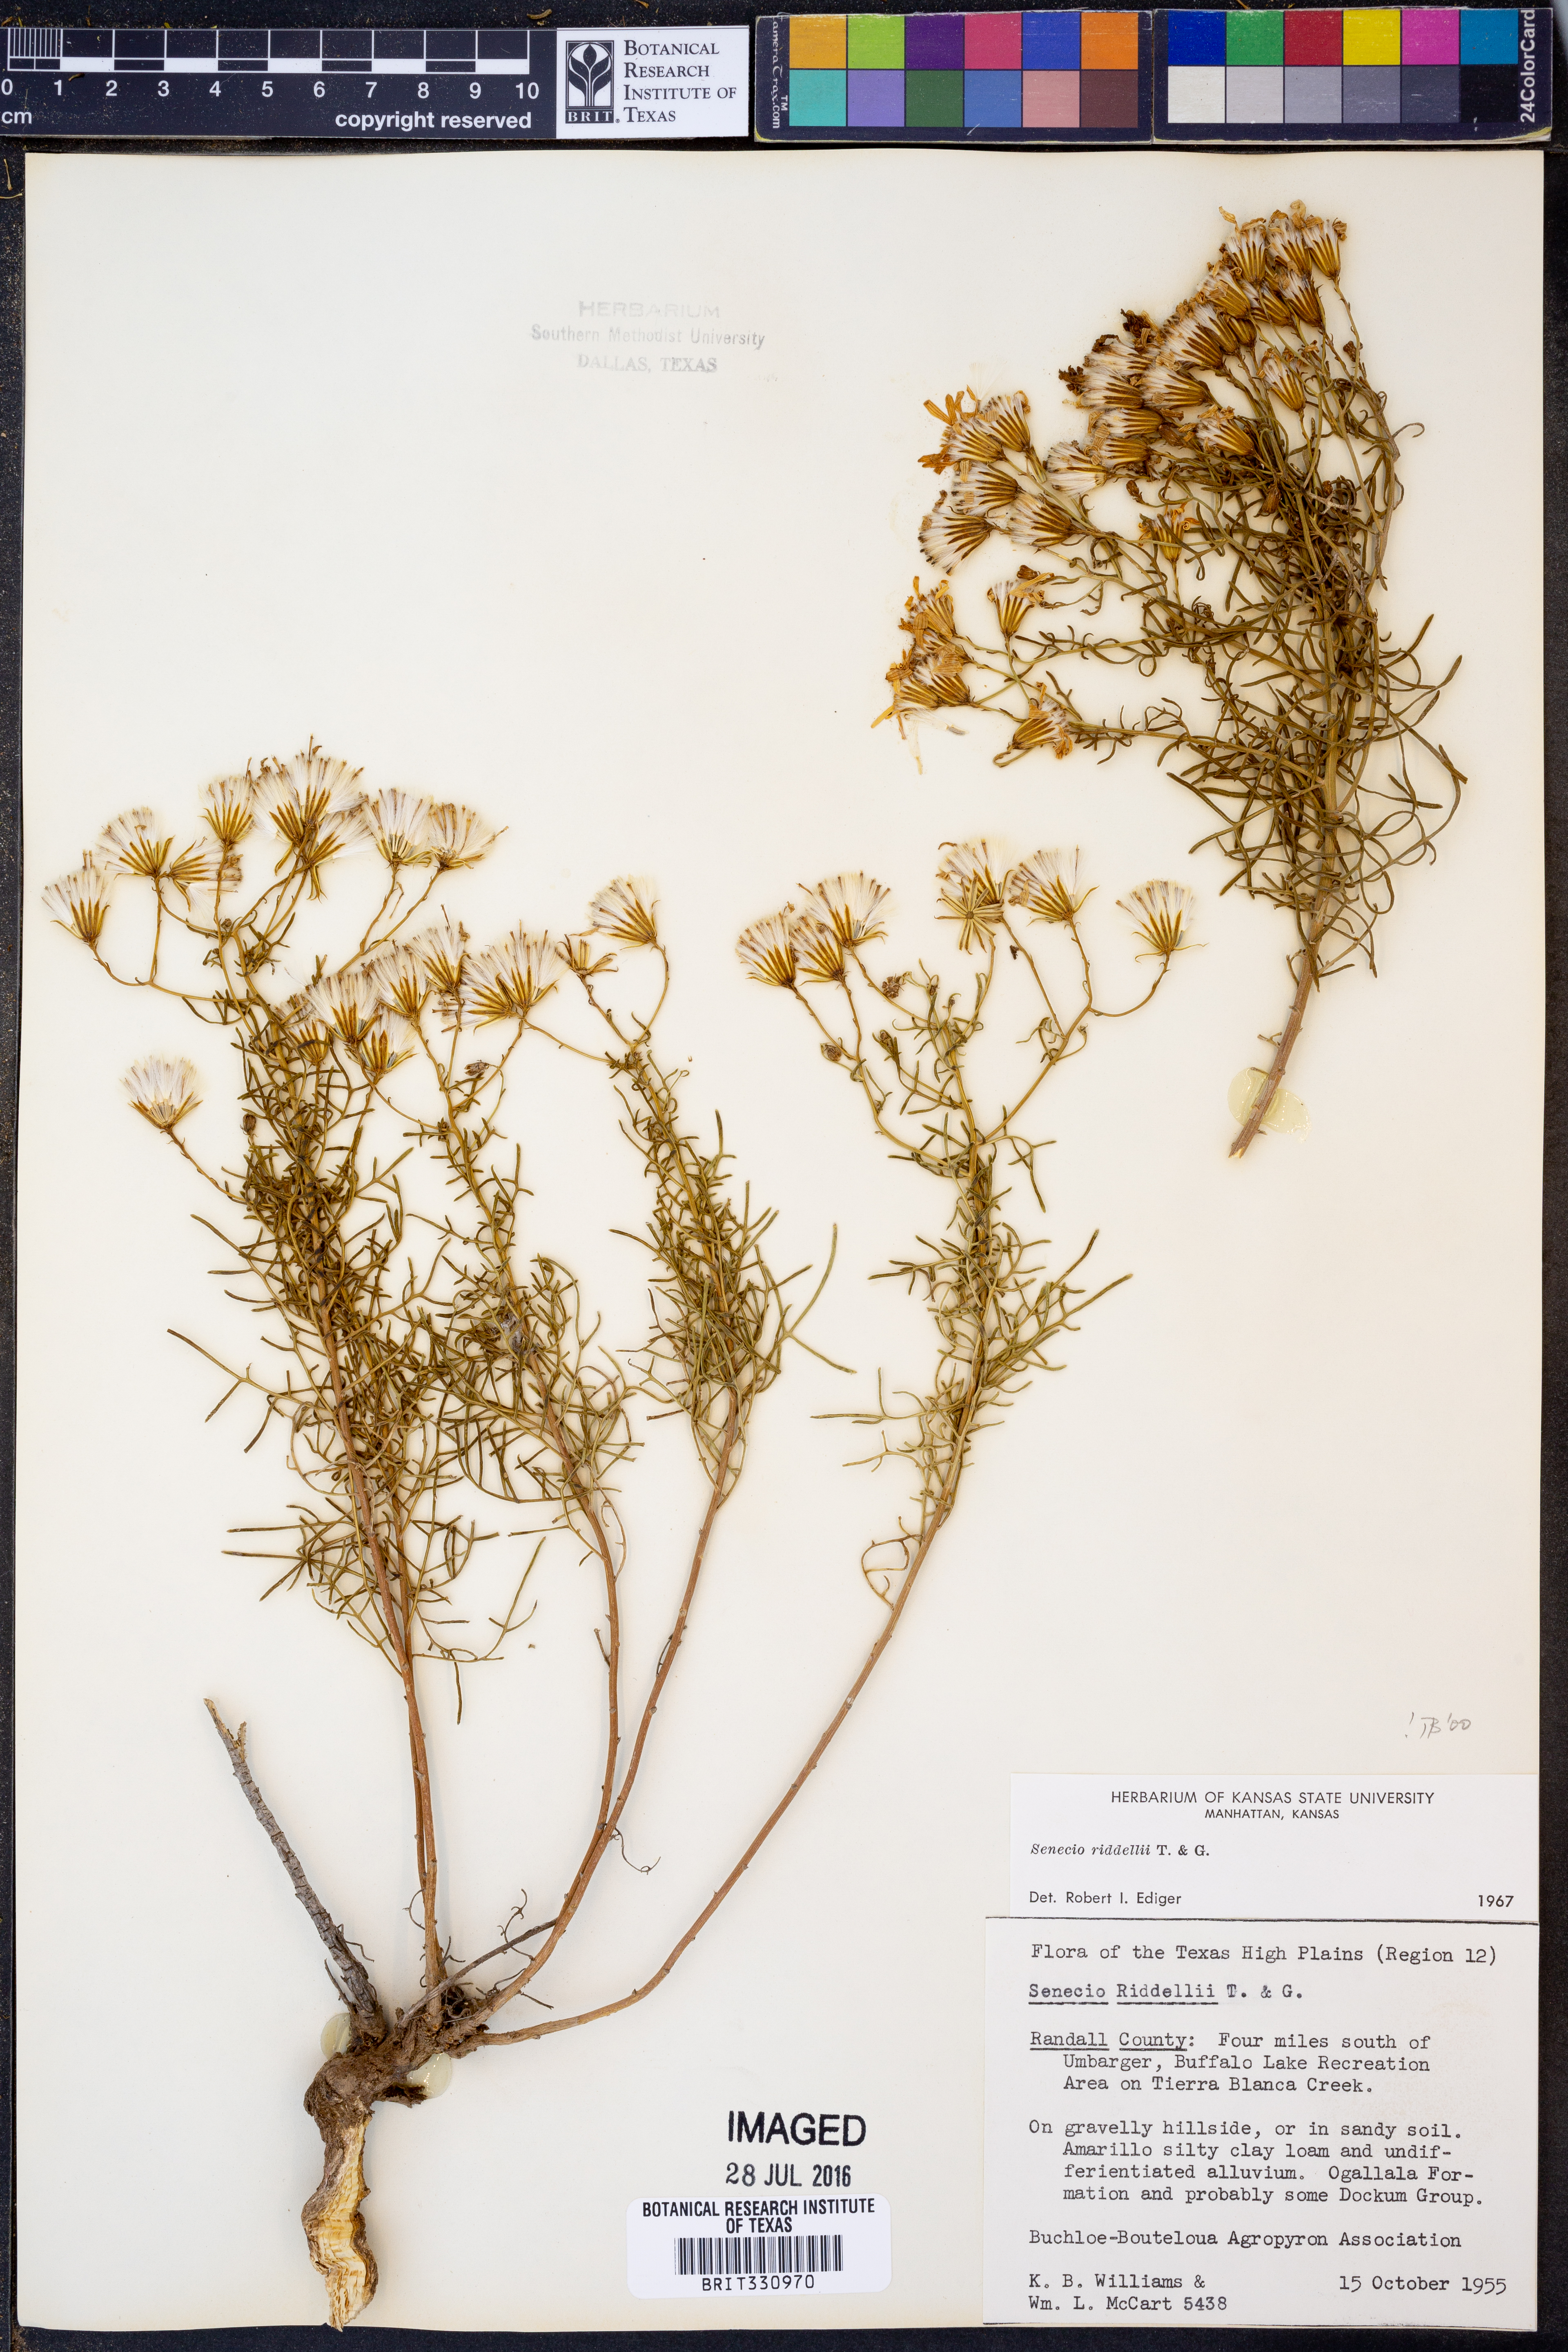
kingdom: Plantae
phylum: Tracheophyta
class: Magnoliopsida
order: Asterales
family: Asteraceae
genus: Senecio
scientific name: Senecio riddellii
